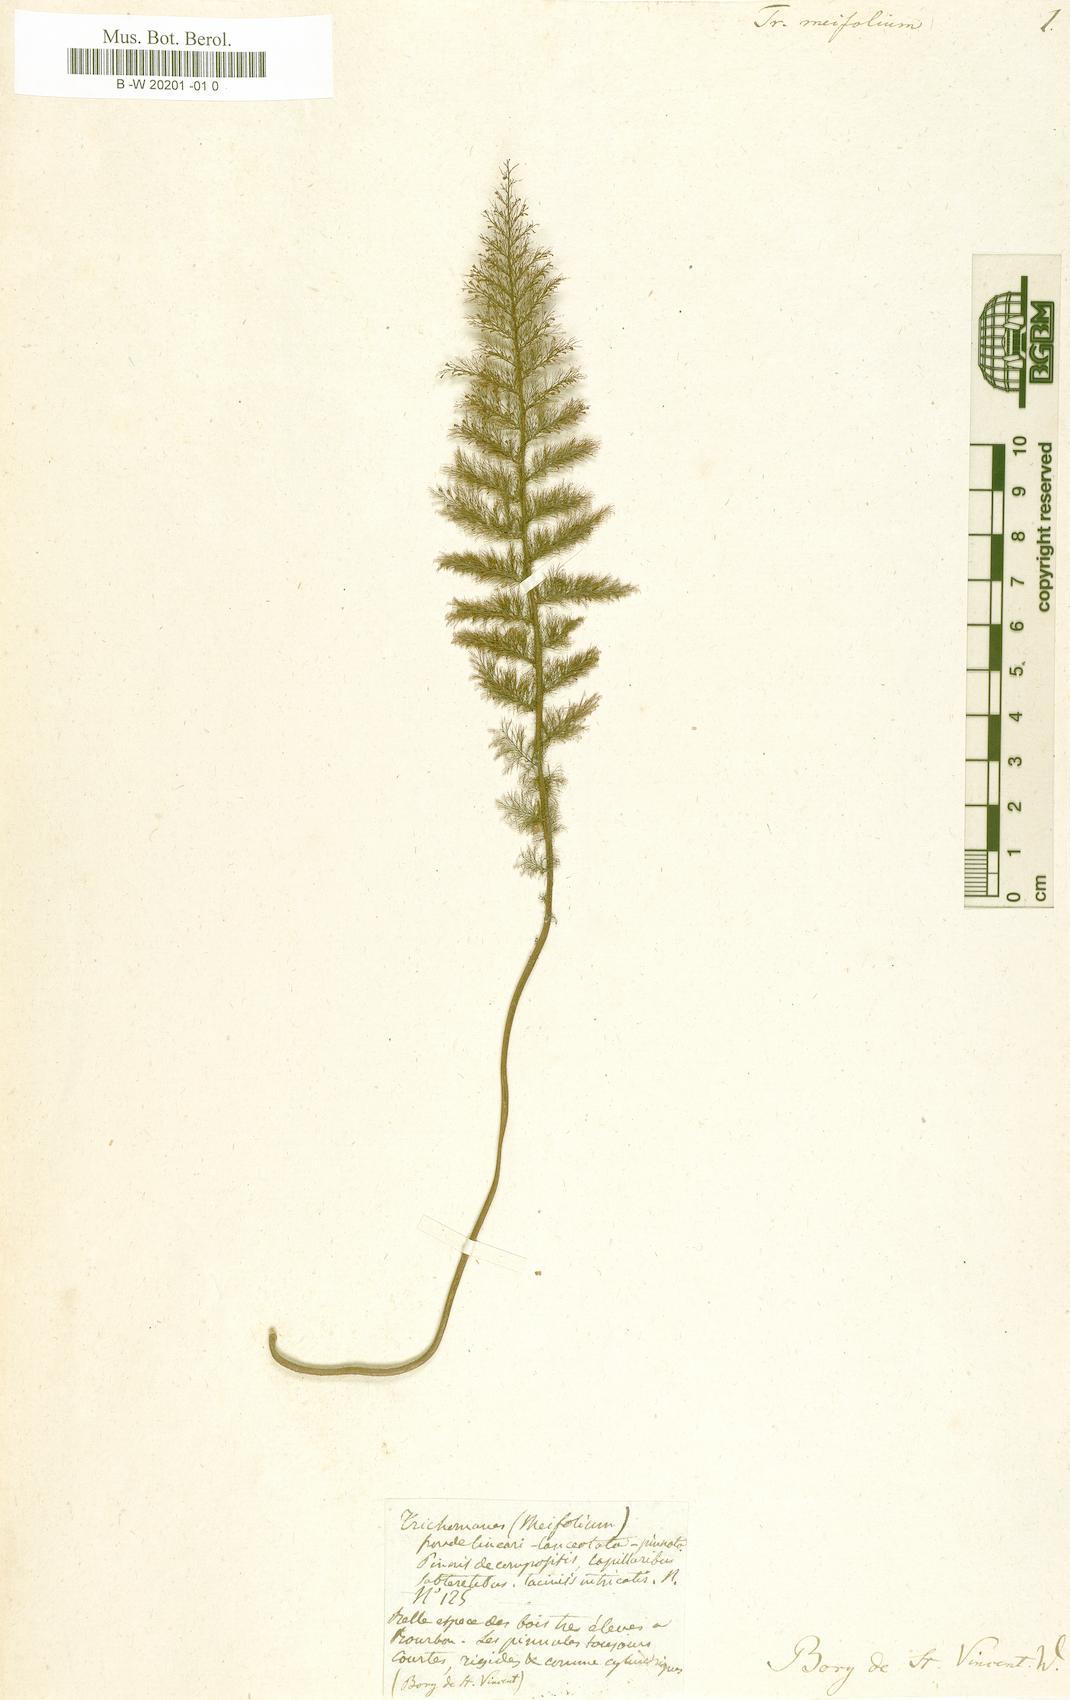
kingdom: Plantae
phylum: Tracheophyta
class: Polypodiopsida
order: Hymenophyllales
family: Hymenophyllaceae
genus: Abrodictyum
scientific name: Abrodictyum parviflorum
